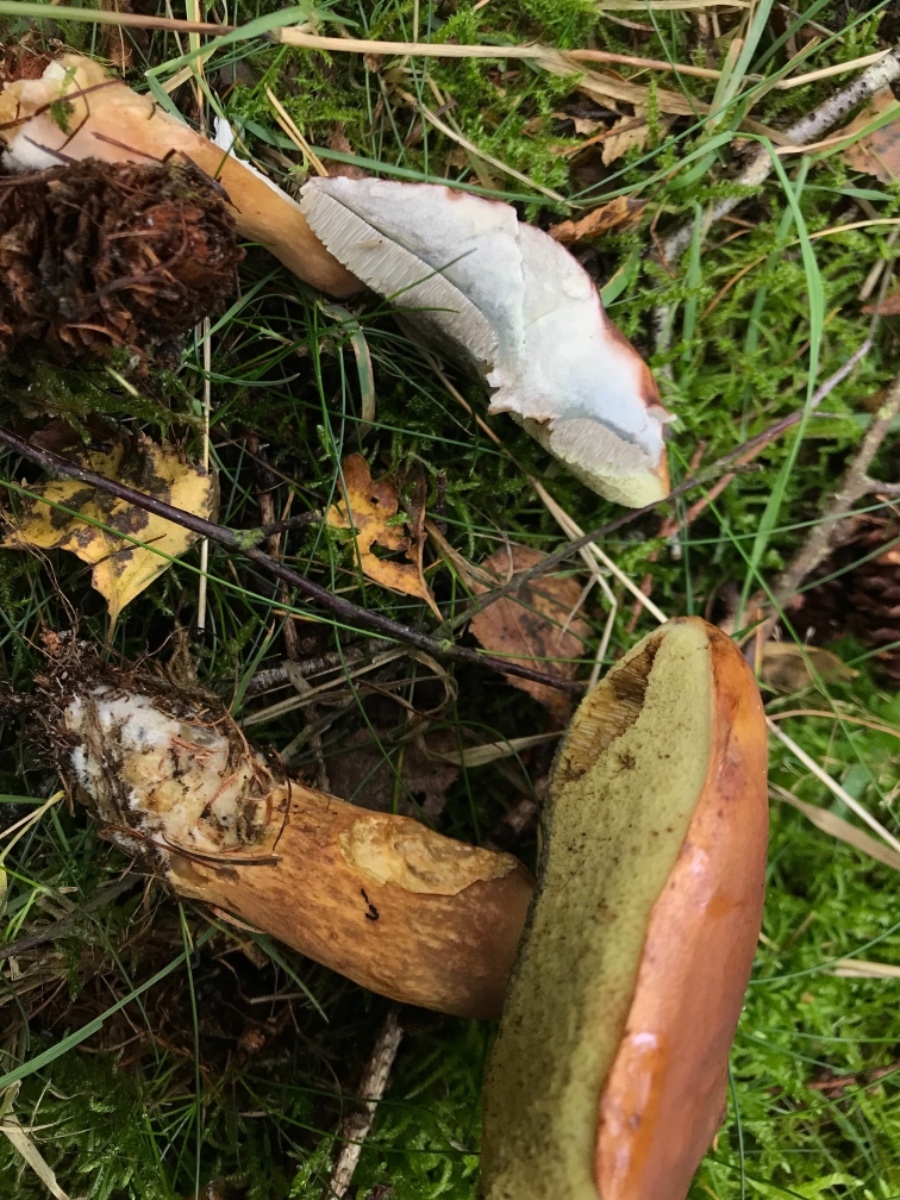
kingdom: Fungi
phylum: Basidiomycota
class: Agaricomycetes
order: Boletales
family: Boletaceae
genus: Imleria
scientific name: Imleria badia
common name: brunstokket rørhat
